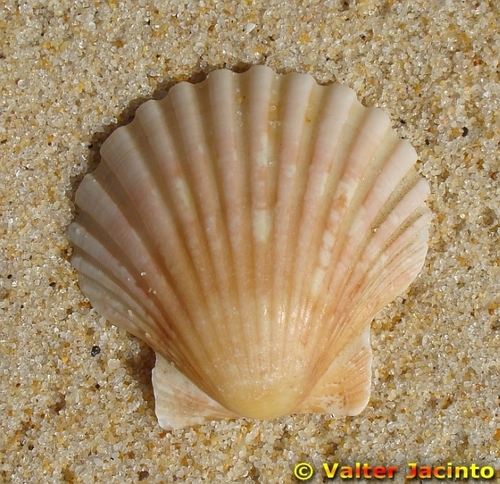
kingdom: Animalia
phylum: Mollusca
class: Bivalvia
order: Pectinida
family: Pectinidae
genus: Pecten
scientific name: Pecten maximus
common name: Great scallop
